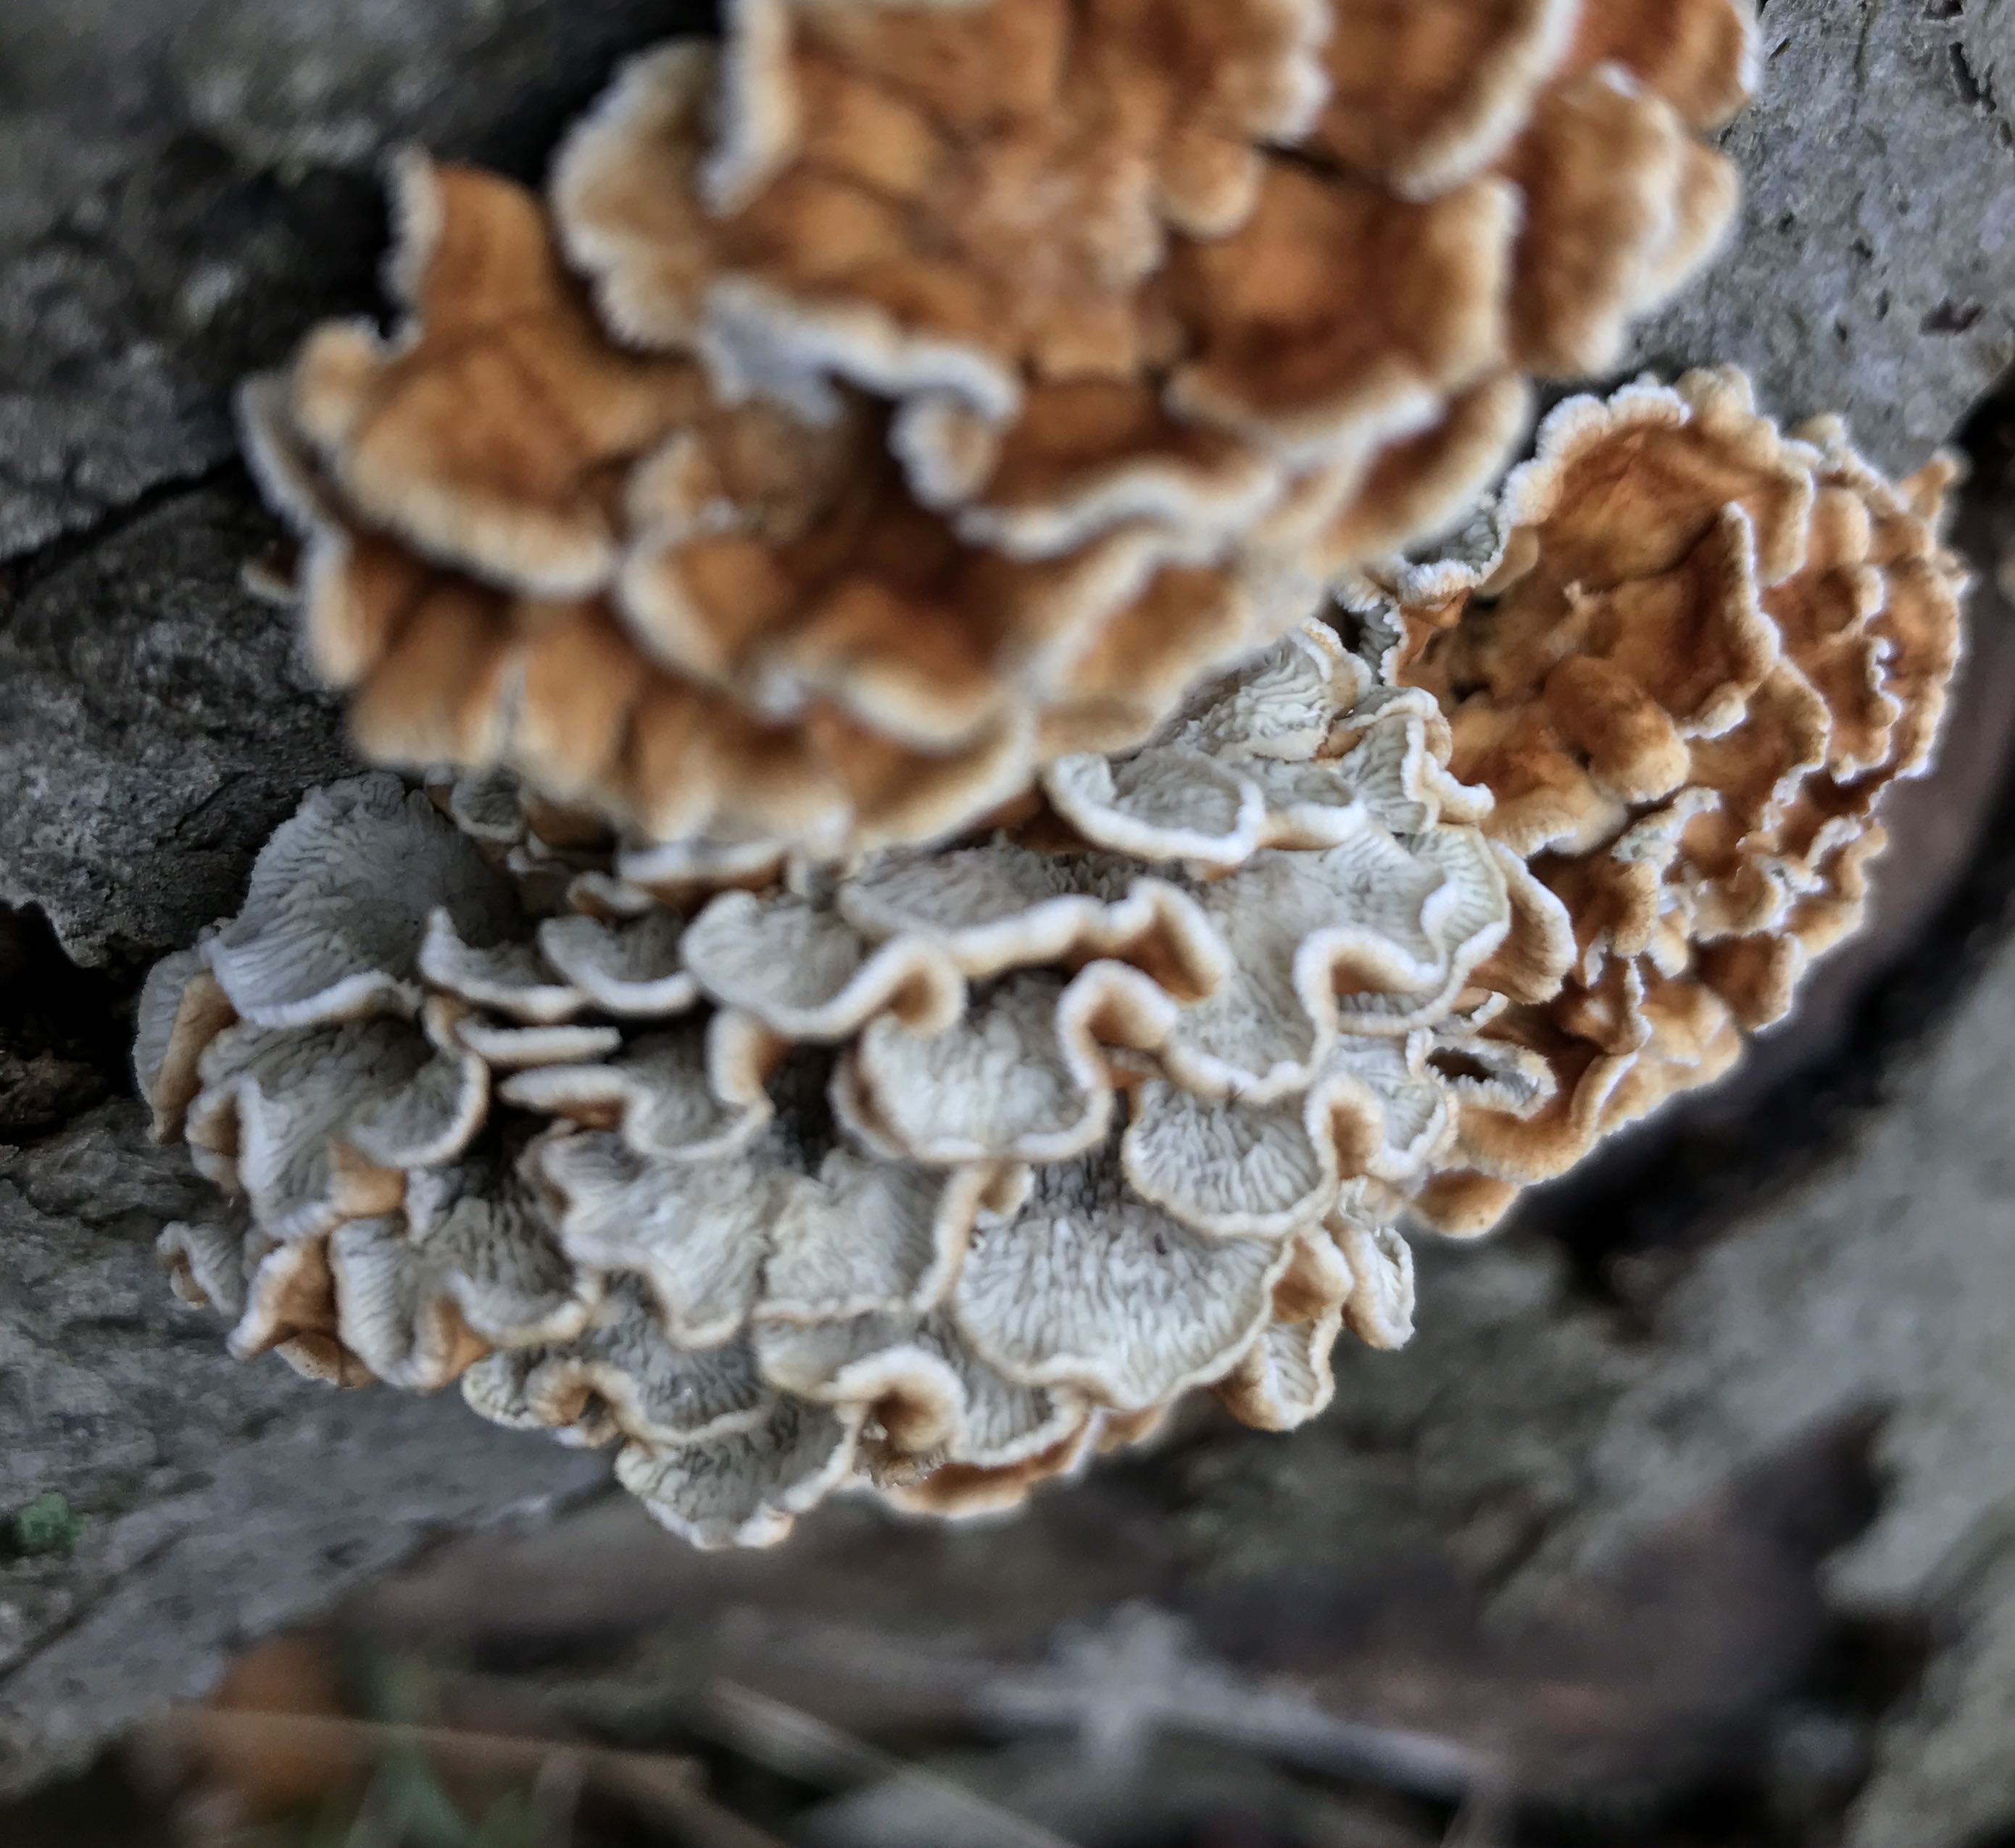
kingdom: Fungi
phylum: Basidiomycota
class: Agaricomycetes
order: Amylocorticiales
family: Amylocorticiaceae
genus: Plicaturopsis
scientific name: Plicaturopsis crispa
